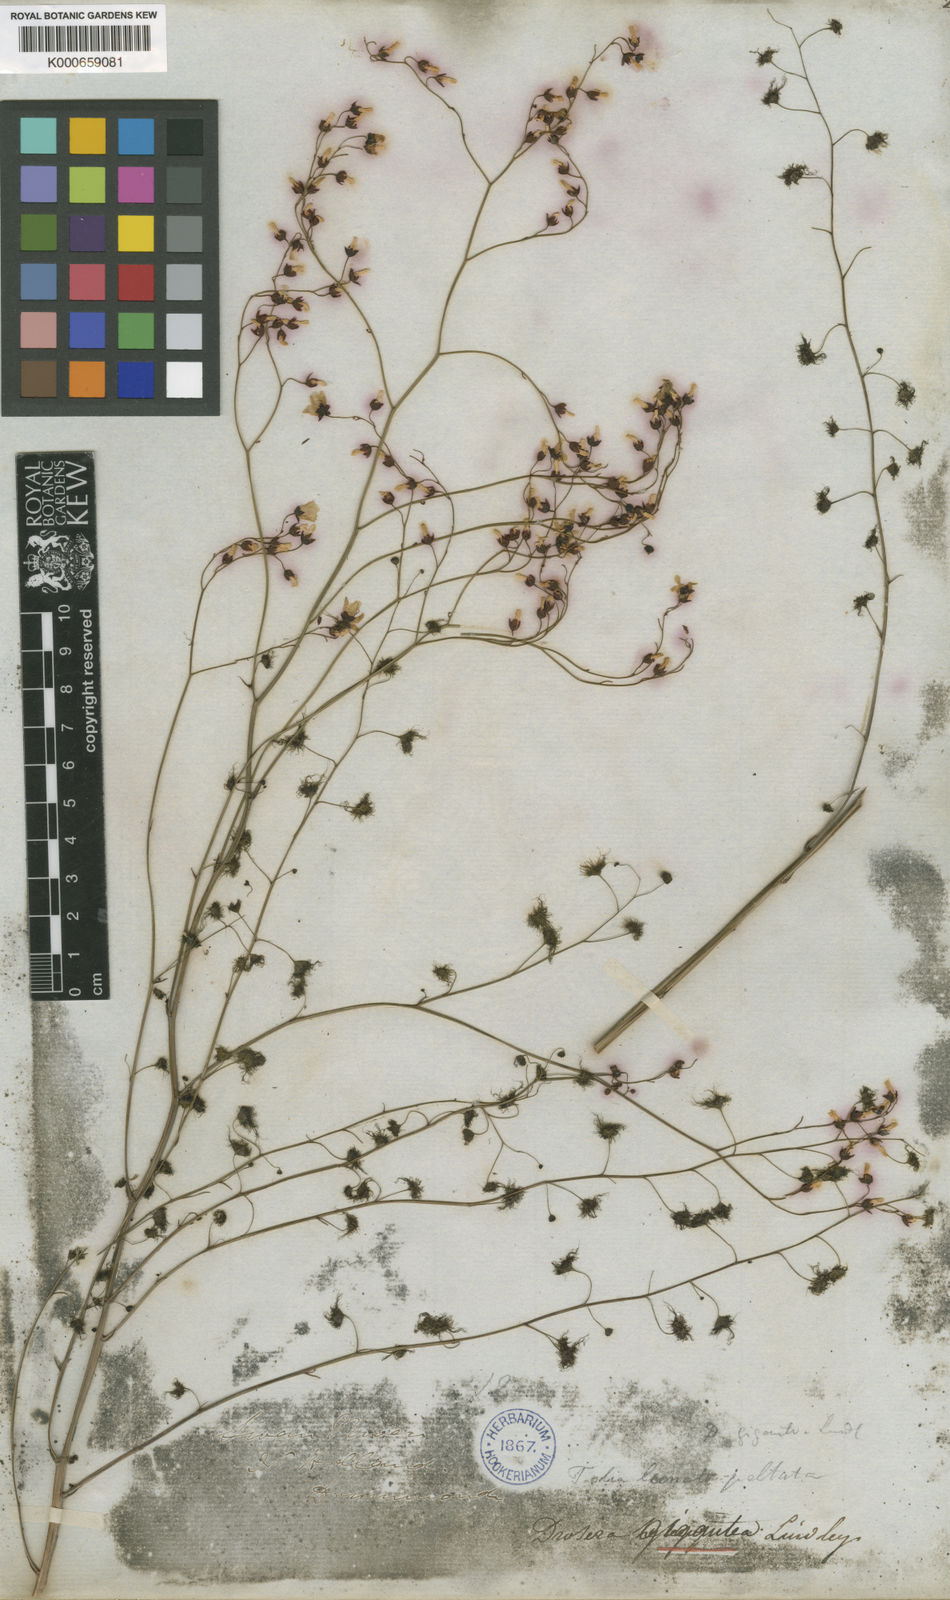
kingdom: Plantae
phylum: Tracheophyta
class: Magnoliopsida
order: Caryophyllales
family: Droseraceae
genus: Drosera
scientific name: Drosera gigantea
